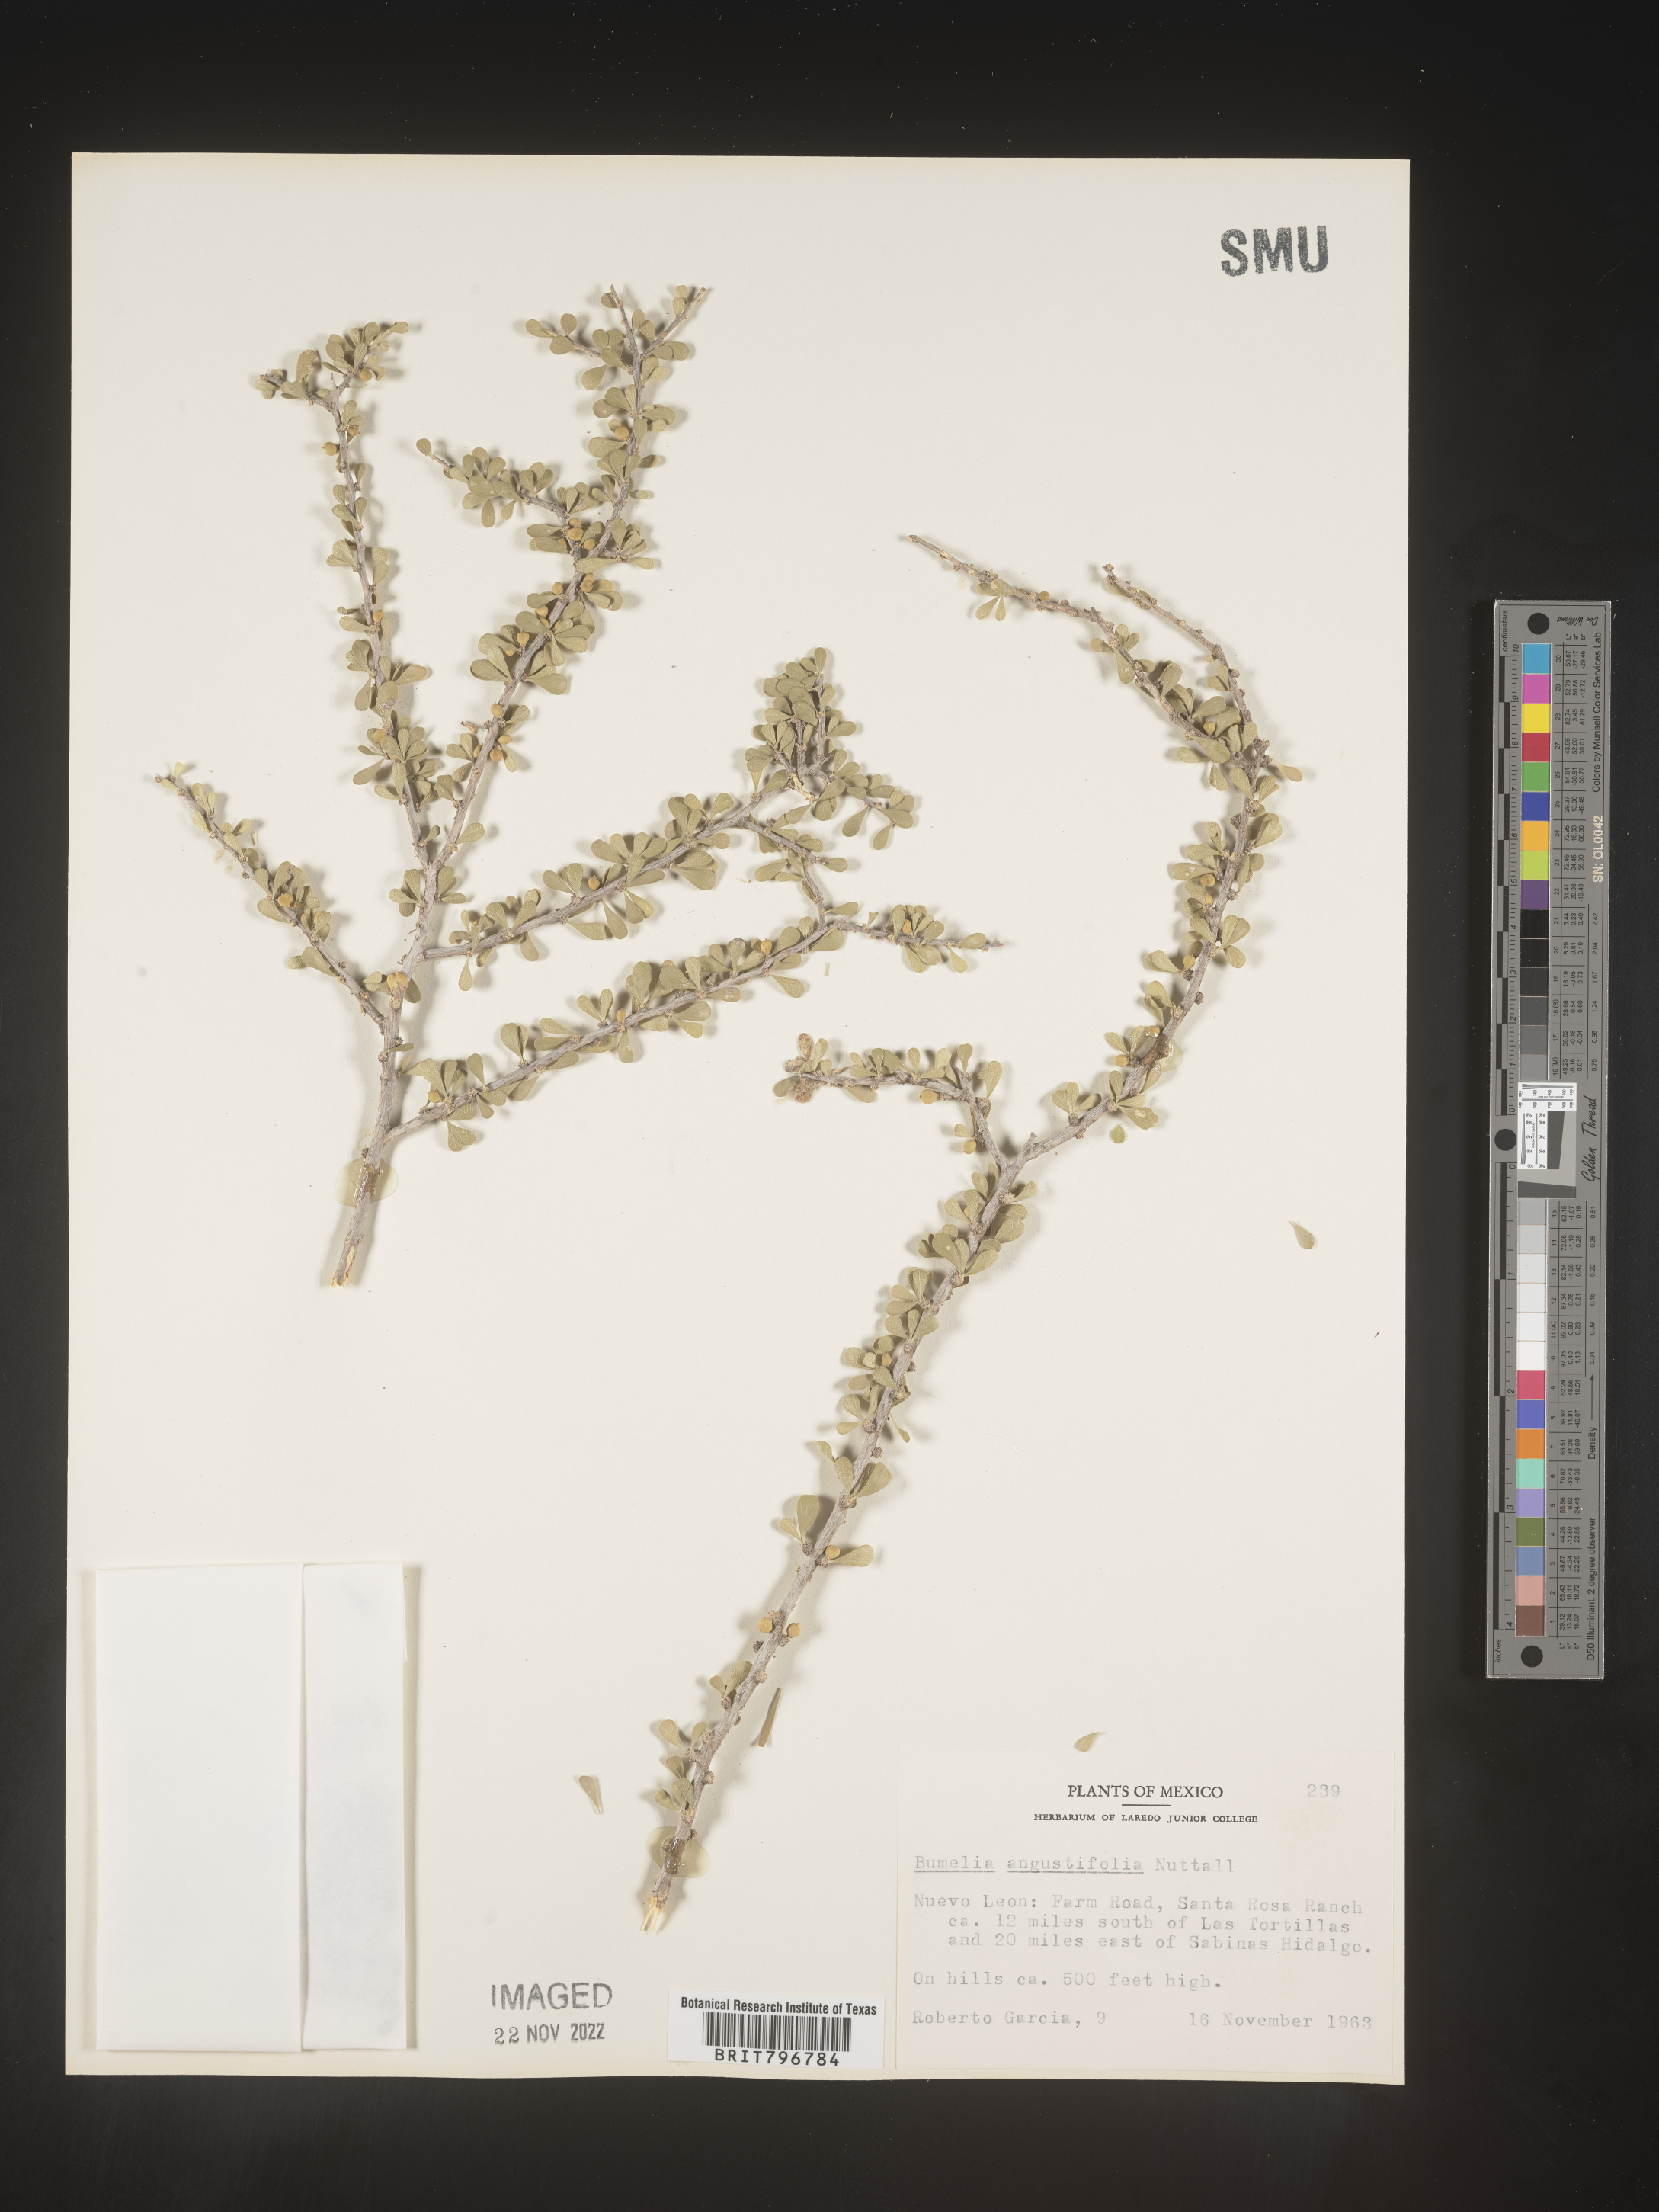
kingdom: Plantae
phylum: Tracheophyta
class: Magnoliopsida
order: Celastrales
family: Celastraceae
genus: Schaefferia
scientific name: Schaefferia
